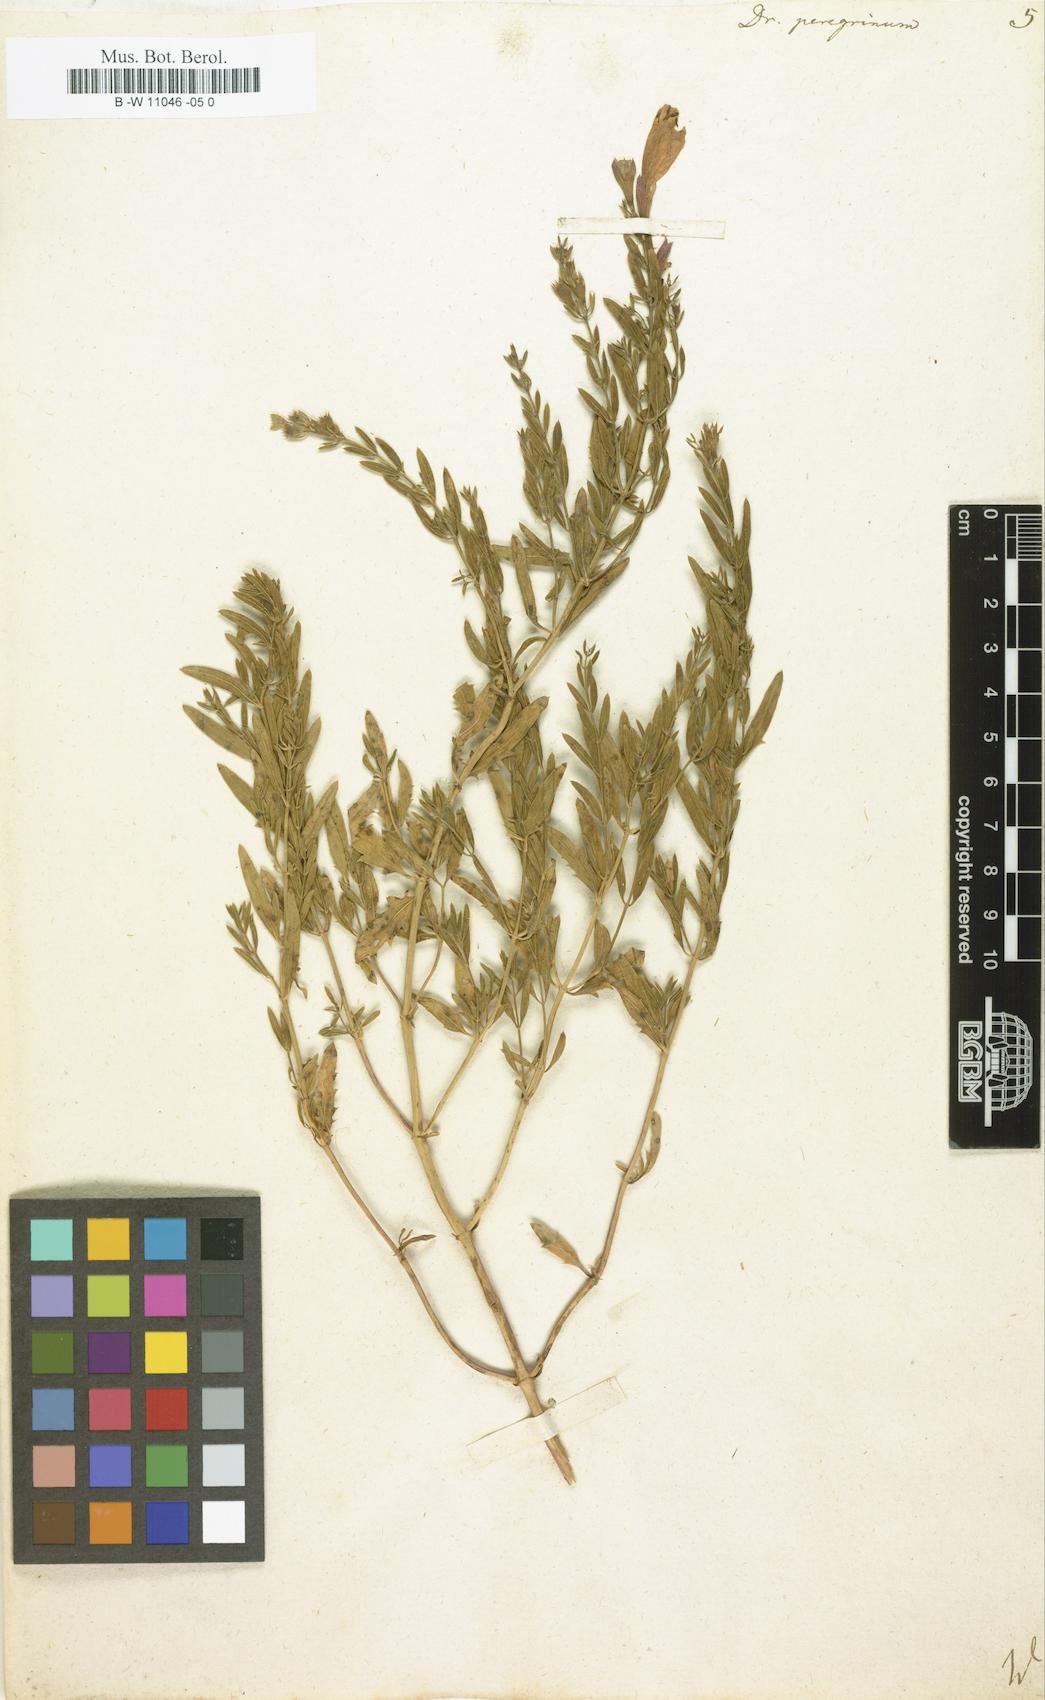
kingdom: Plantae
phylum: Tracheophyta
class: Magnoliopsida
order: Lamiales
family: Lamiaceae
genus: Dracocephalum
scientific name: Dracocephalum peregrinum
